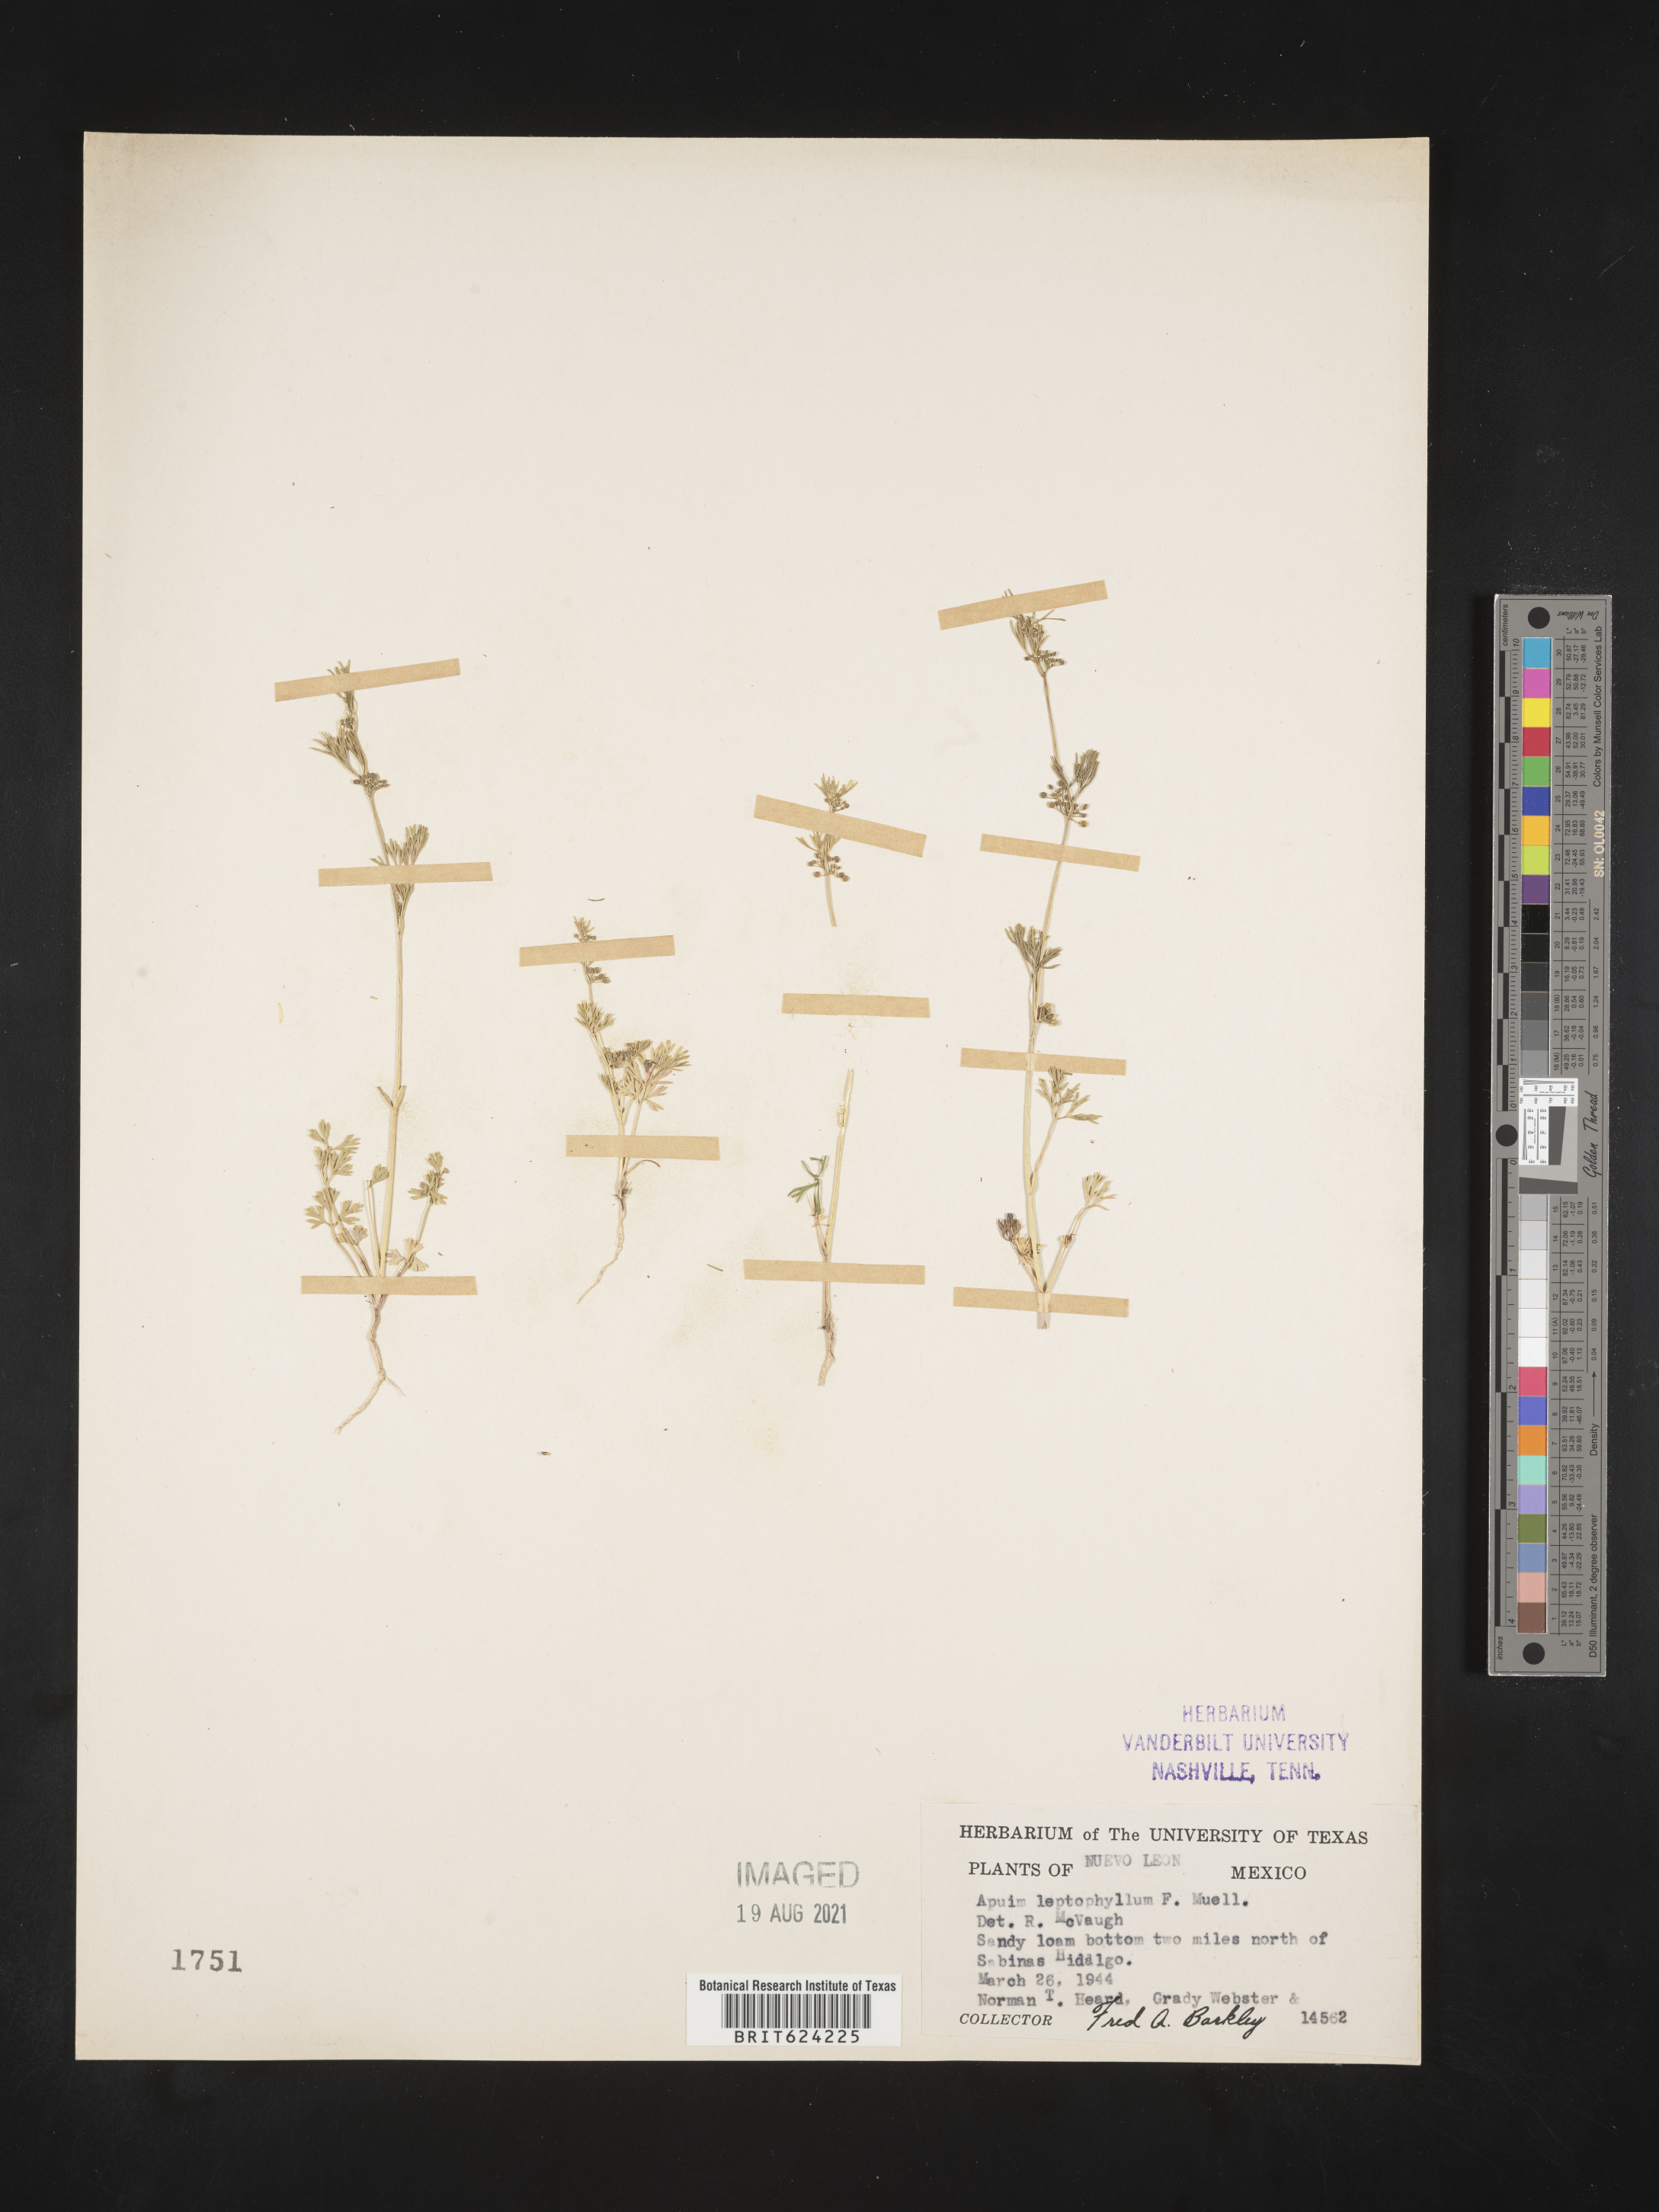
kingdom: Plantae
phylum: Tracheophyta
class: Magnoliopsida
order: Apiales
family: Apiaceae
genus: Apium
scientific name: Apium
